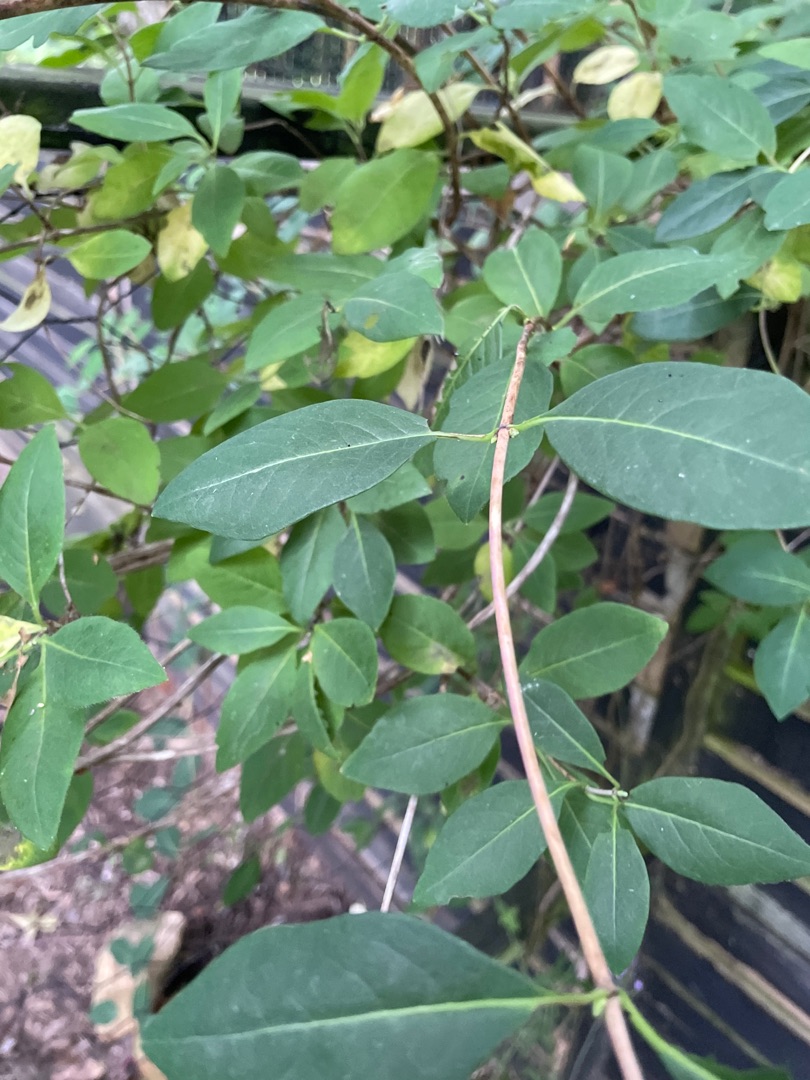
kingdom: Plantae
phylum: Tracheophyta
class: Magnoliopsida
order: Dipsacales
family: Caprifoliaceae
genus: Lonicera
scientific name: Lonicera periclymenum
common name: Almindelig gedeblad
